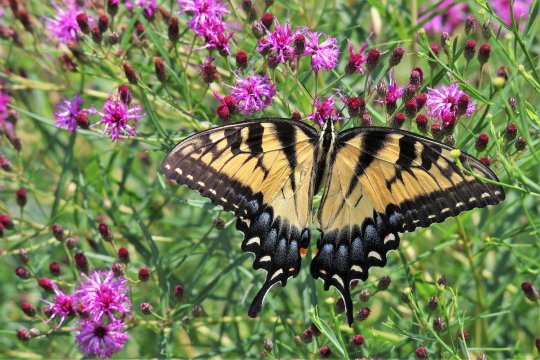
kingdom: Animalia
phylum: Arthropoda
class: Insecta
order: Lepidoptera
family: Papilionidae
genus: Pterourus
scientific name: Pterourus glaucus
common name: Eastern Tiger Swallowtail
